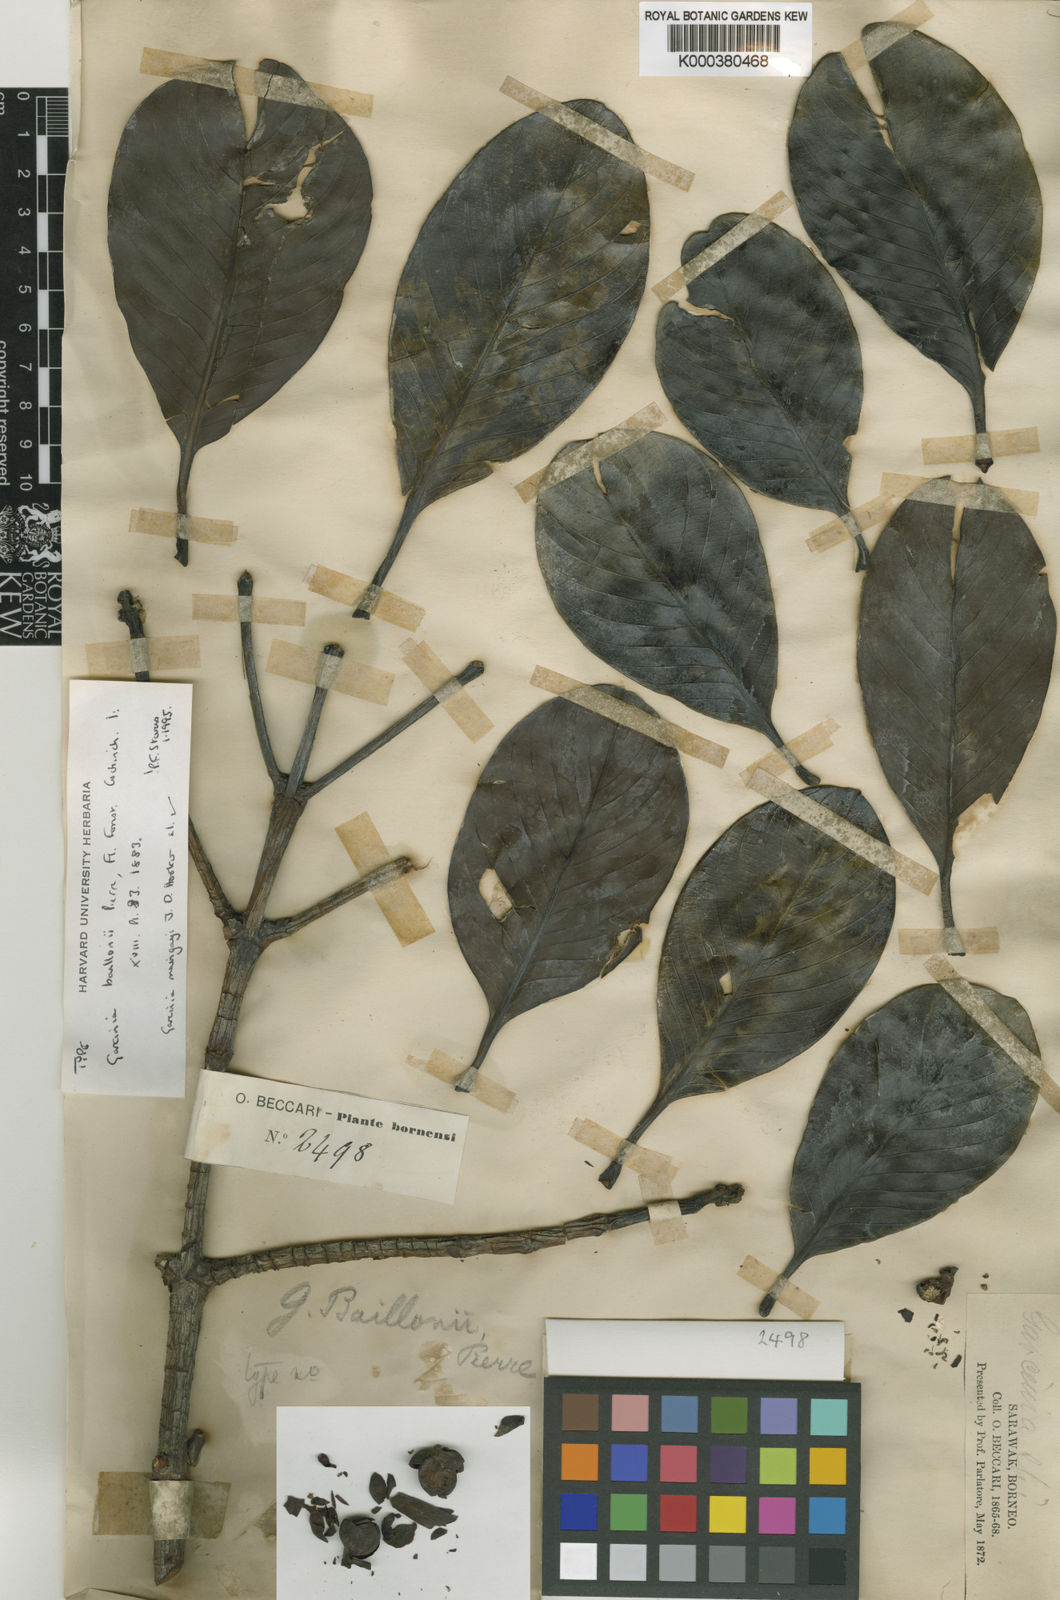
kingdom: Plantae
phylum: Tracheophyta
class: Magnoliopsida
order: Malpighiales
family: Clusiaceae
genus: Garcinia
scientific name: Garcinia maingayi
